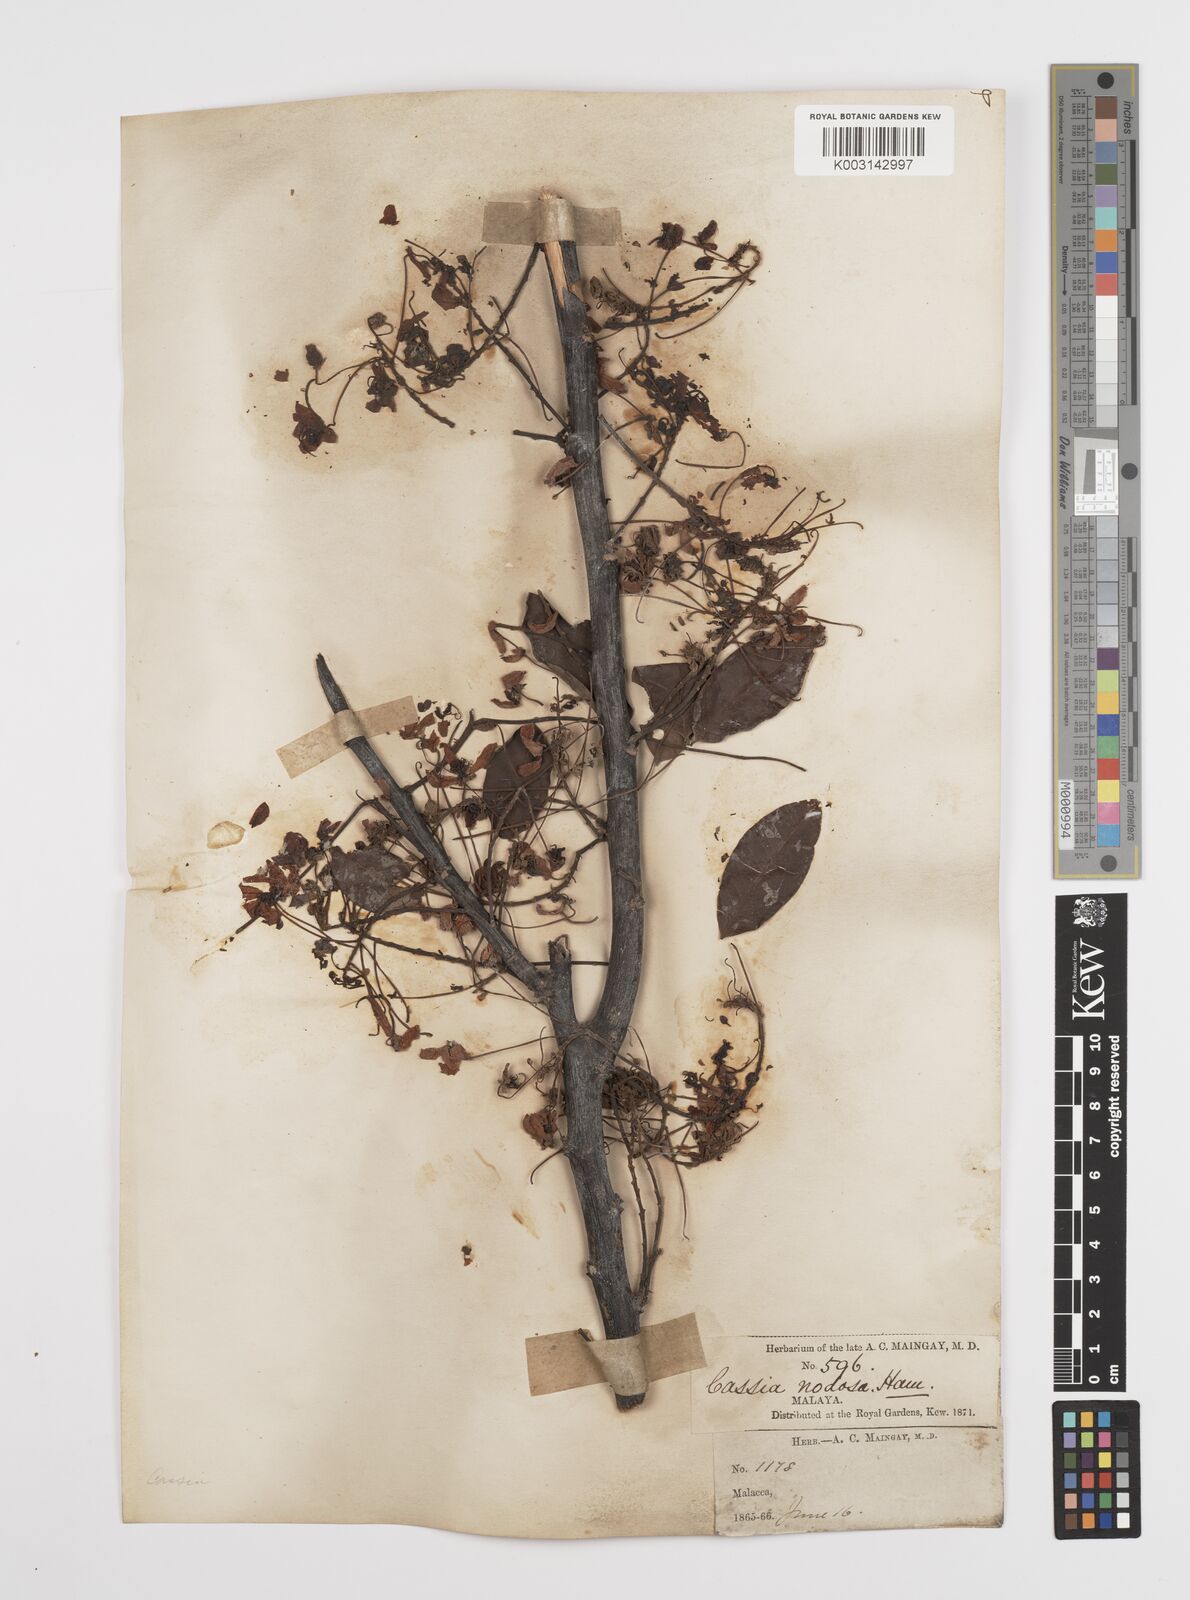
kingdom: Plantae
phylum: Tracheophyta
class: Magnoliopsida
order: Fabales
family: Fabaceae
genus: Cassia
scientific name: Cassia javanica
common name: Apple blossom
